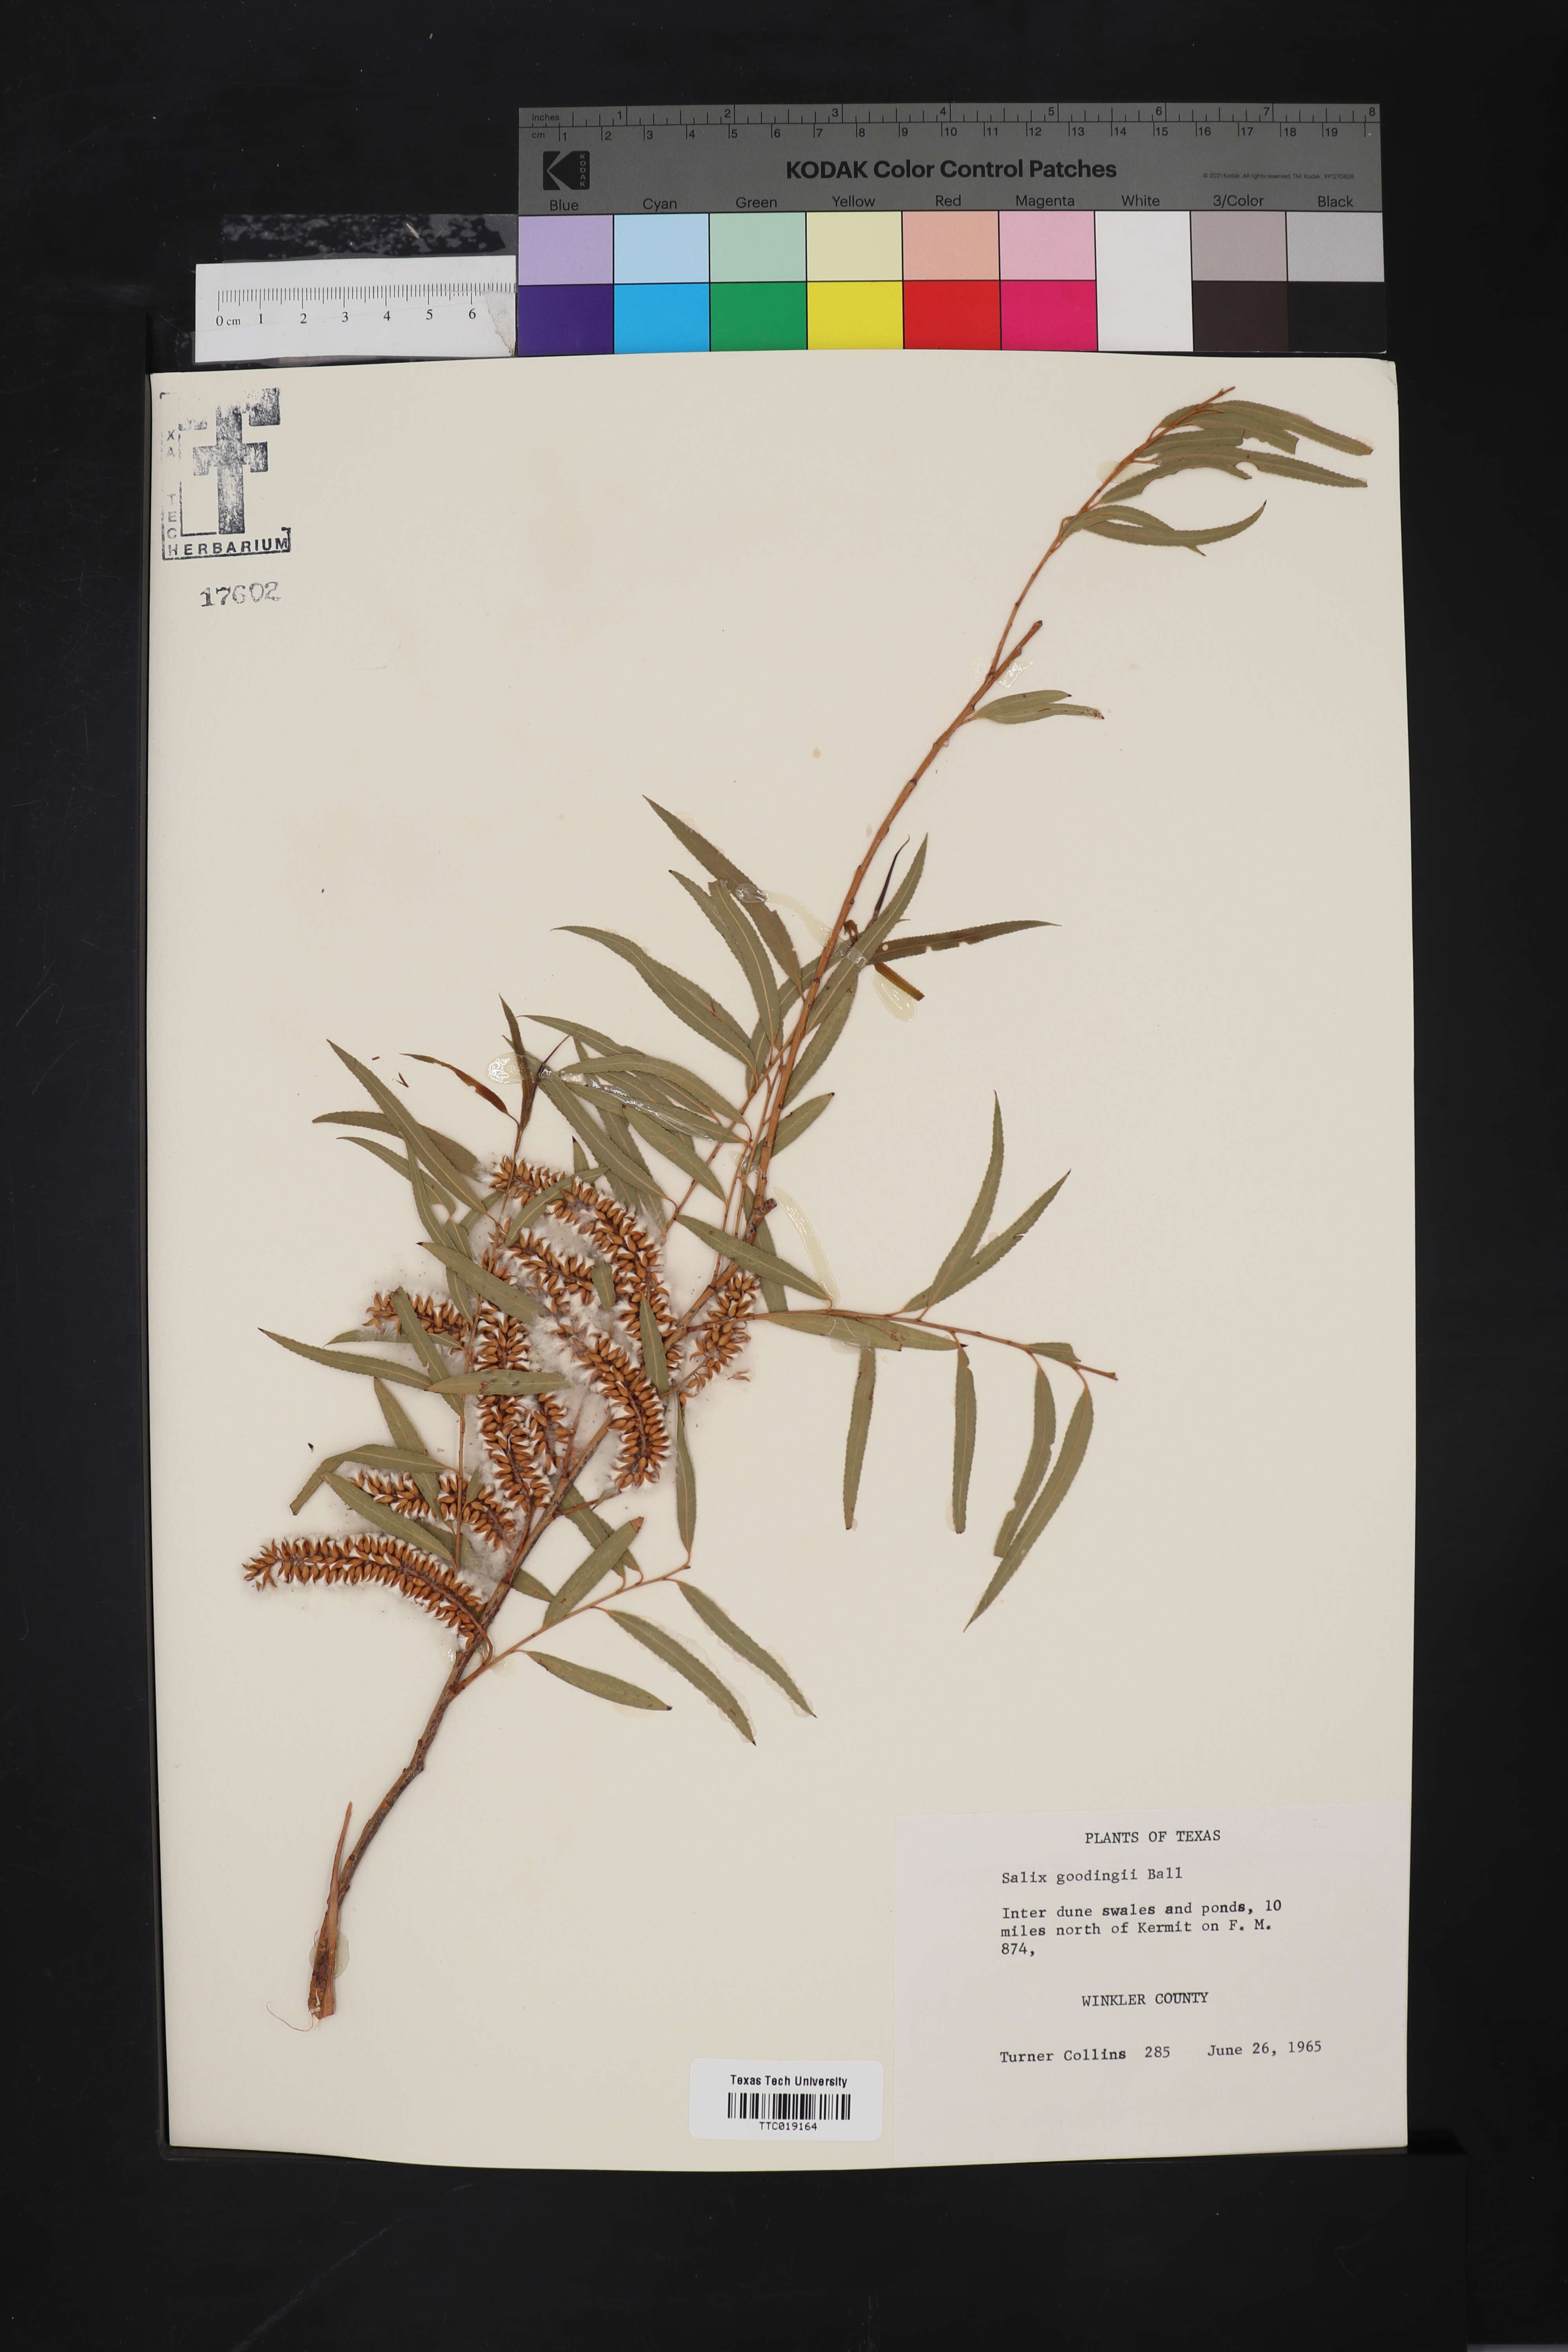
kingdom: Plantae
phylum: Tracheophyta
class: Magnoliopsida
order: Malpighiales
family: Salicaceae
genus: Salix
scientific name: Salix gooddingii
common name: Goodding's willow
